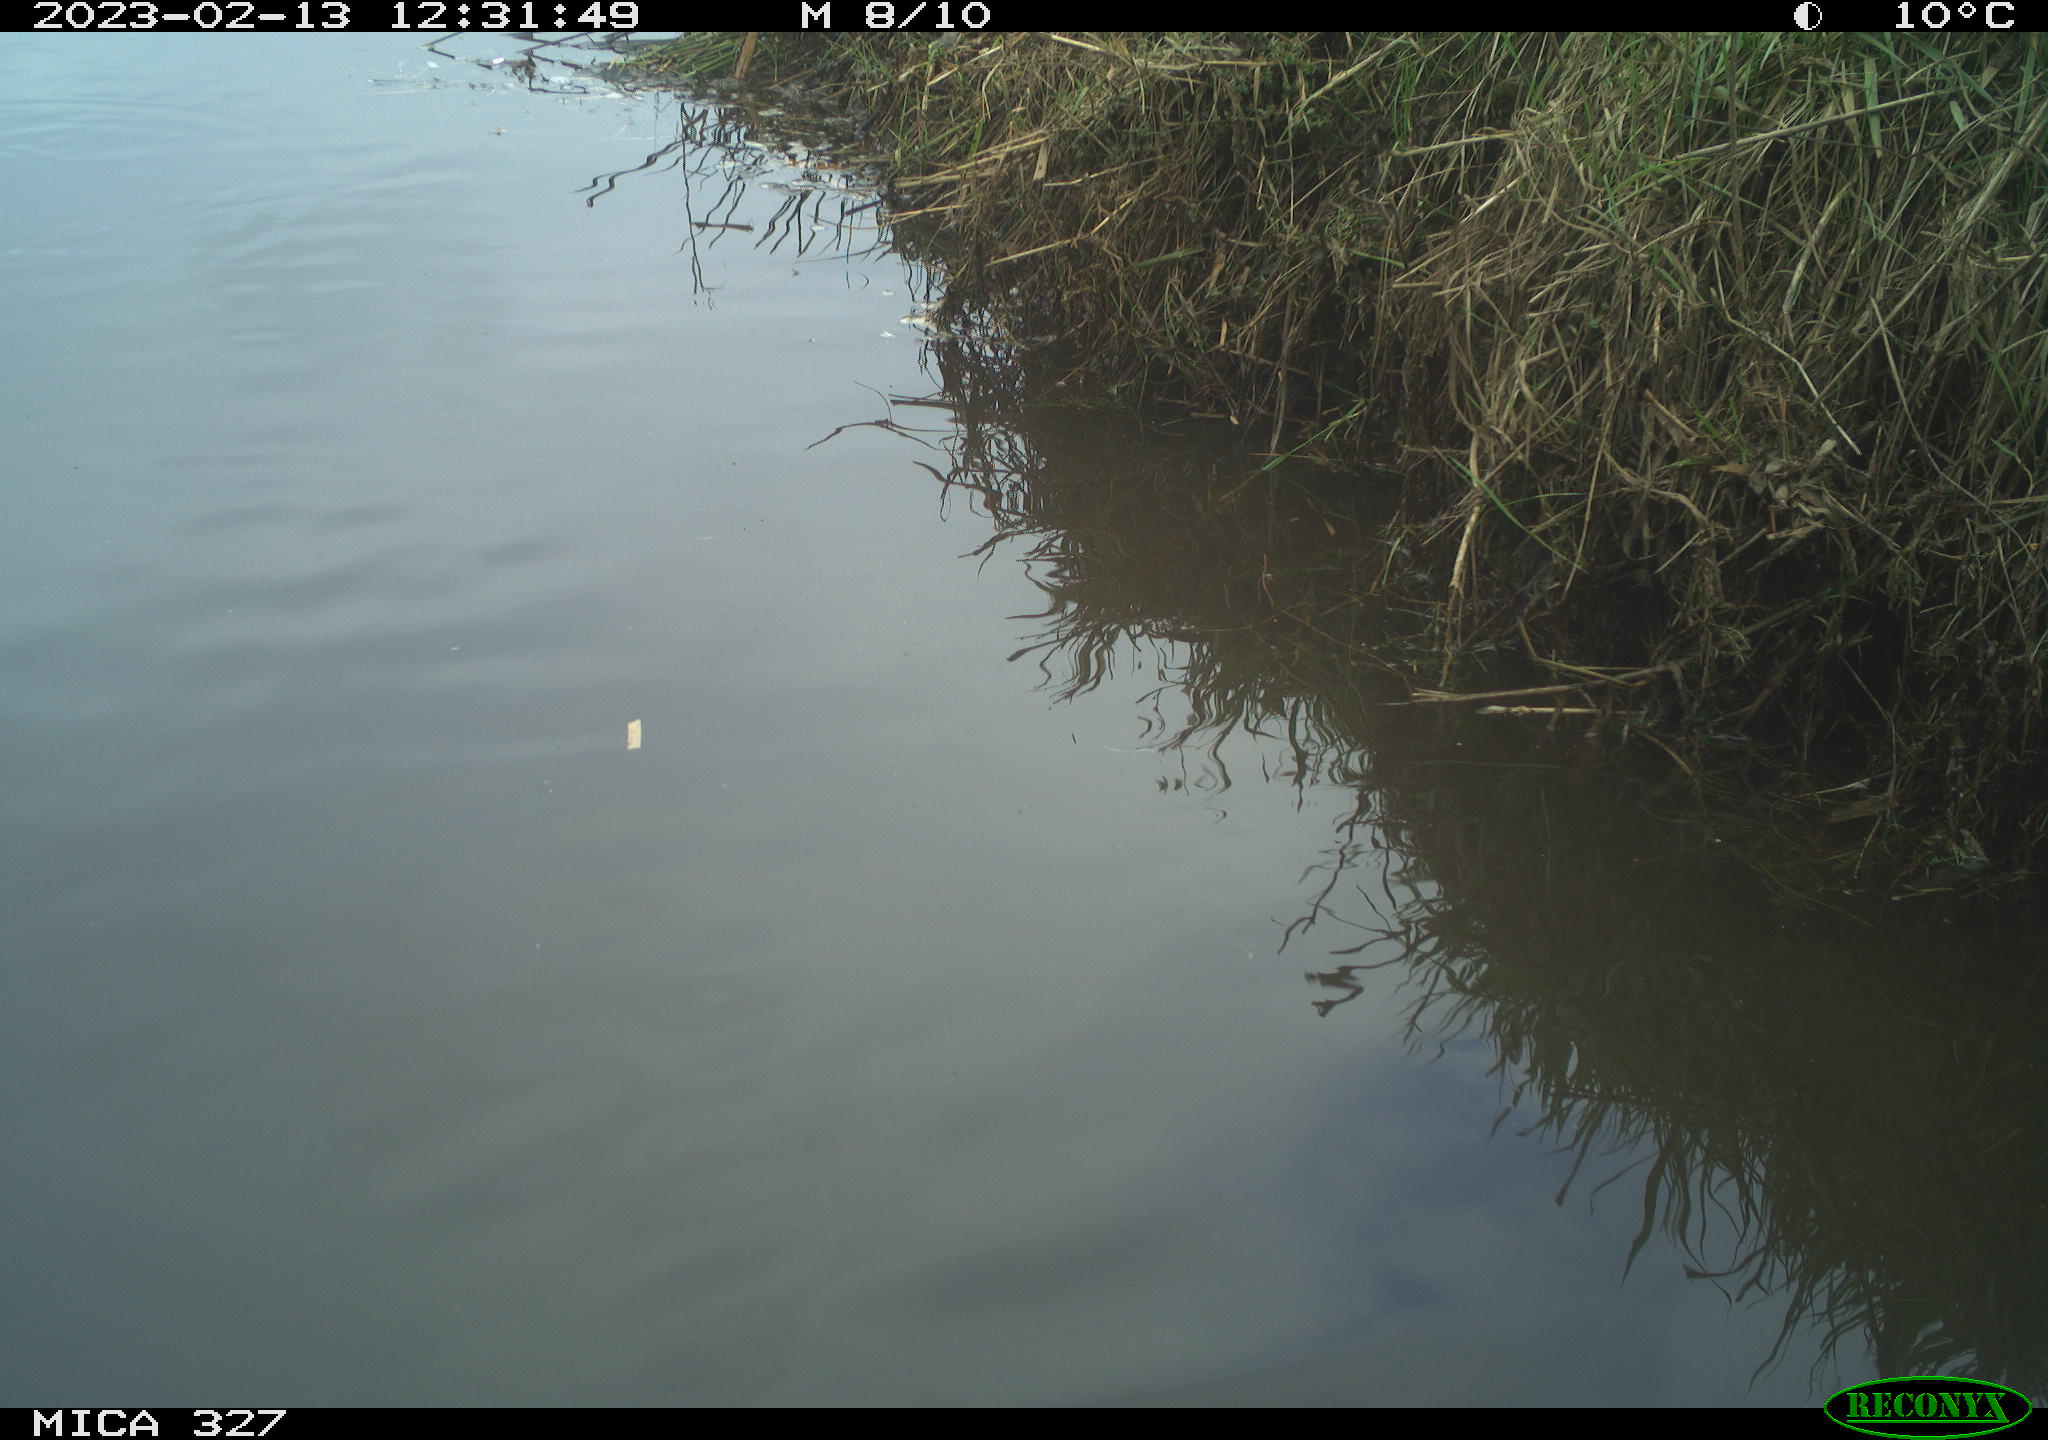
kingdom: Animalia
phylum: Chordata
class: Aves
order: Gruiformes
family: Rallidae
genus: Gallinula
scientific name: Gallinula chloropus
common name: Common moorhen
